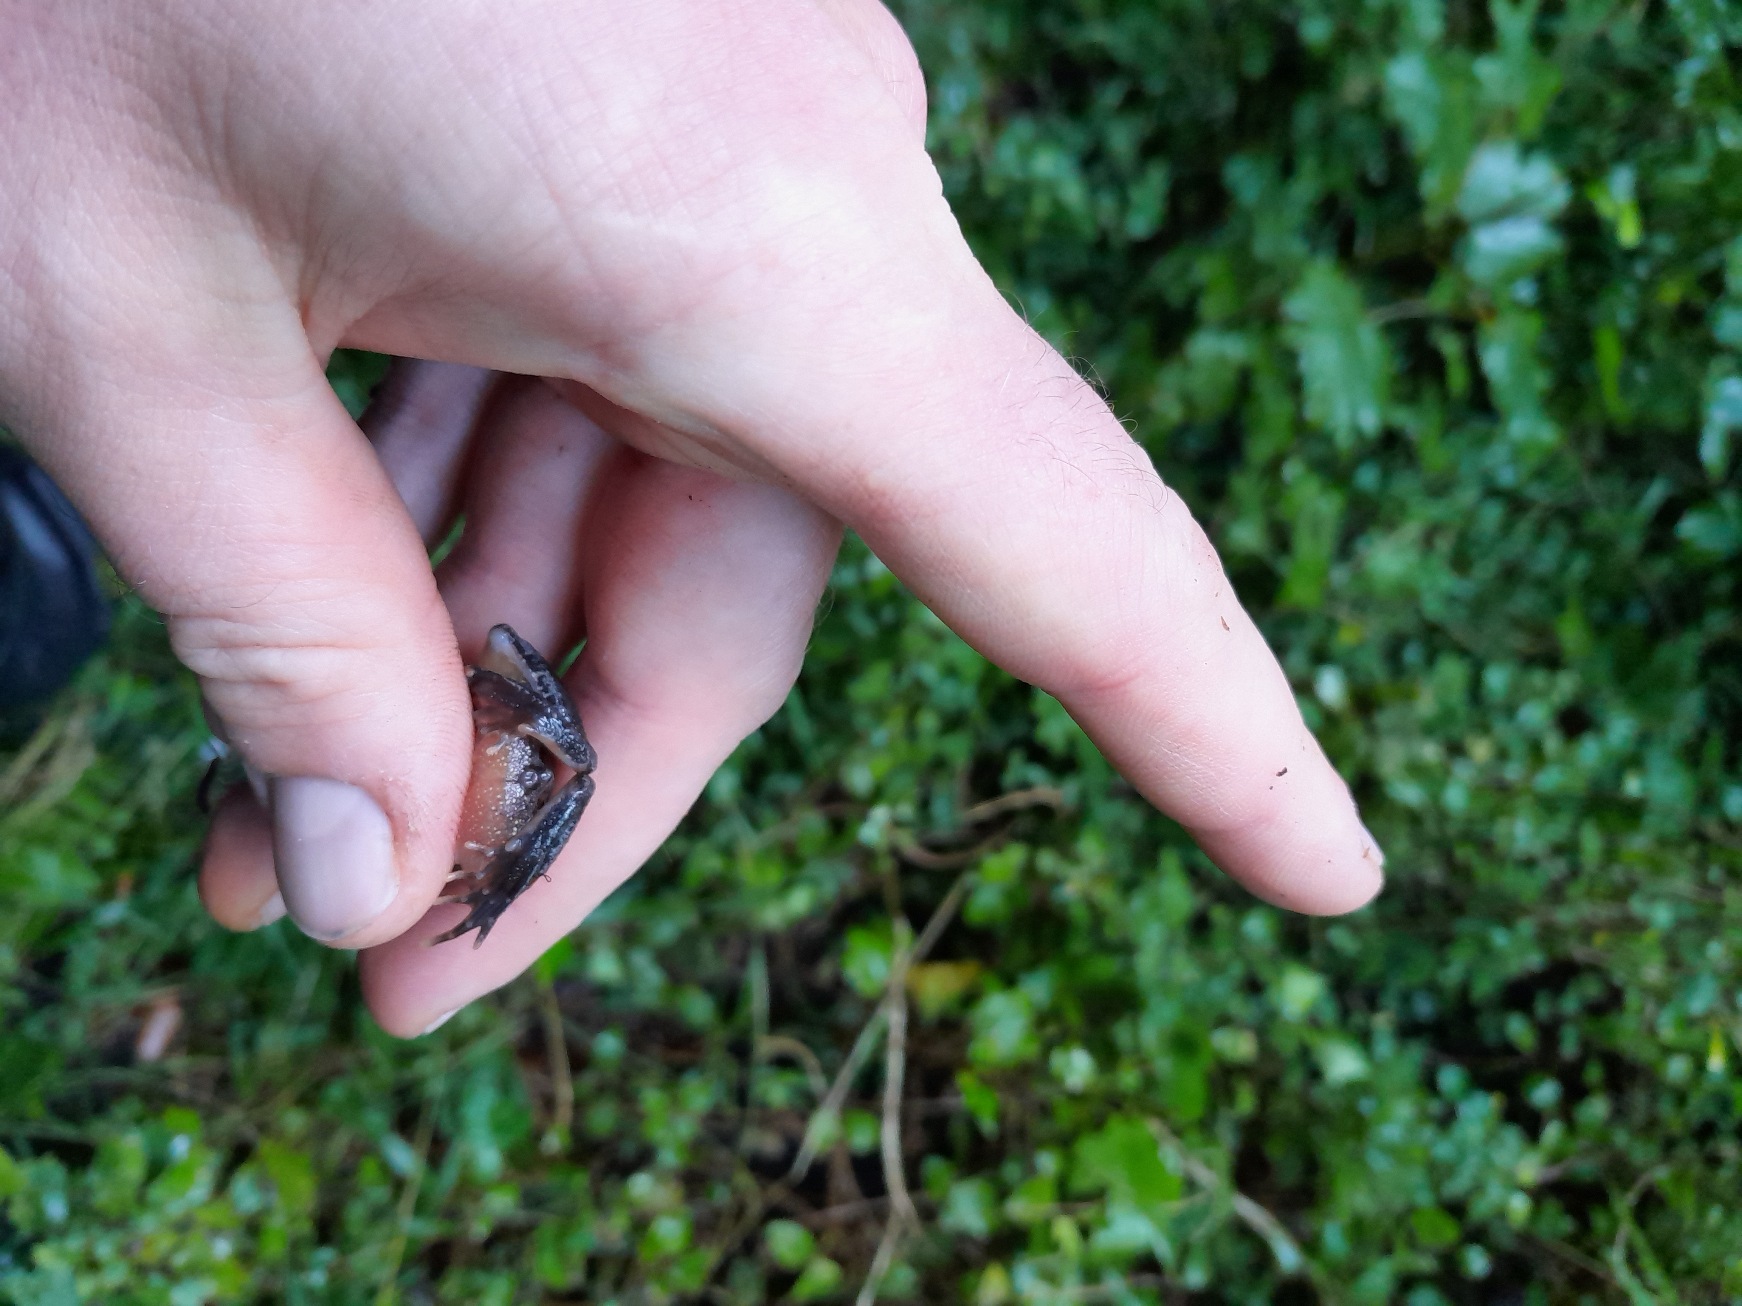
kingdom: Animalia
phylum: Chordata
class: Amphibia
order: Anura
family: Ranidae
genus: Rana
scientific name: Rana temporaria
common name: Butsnudet frø
